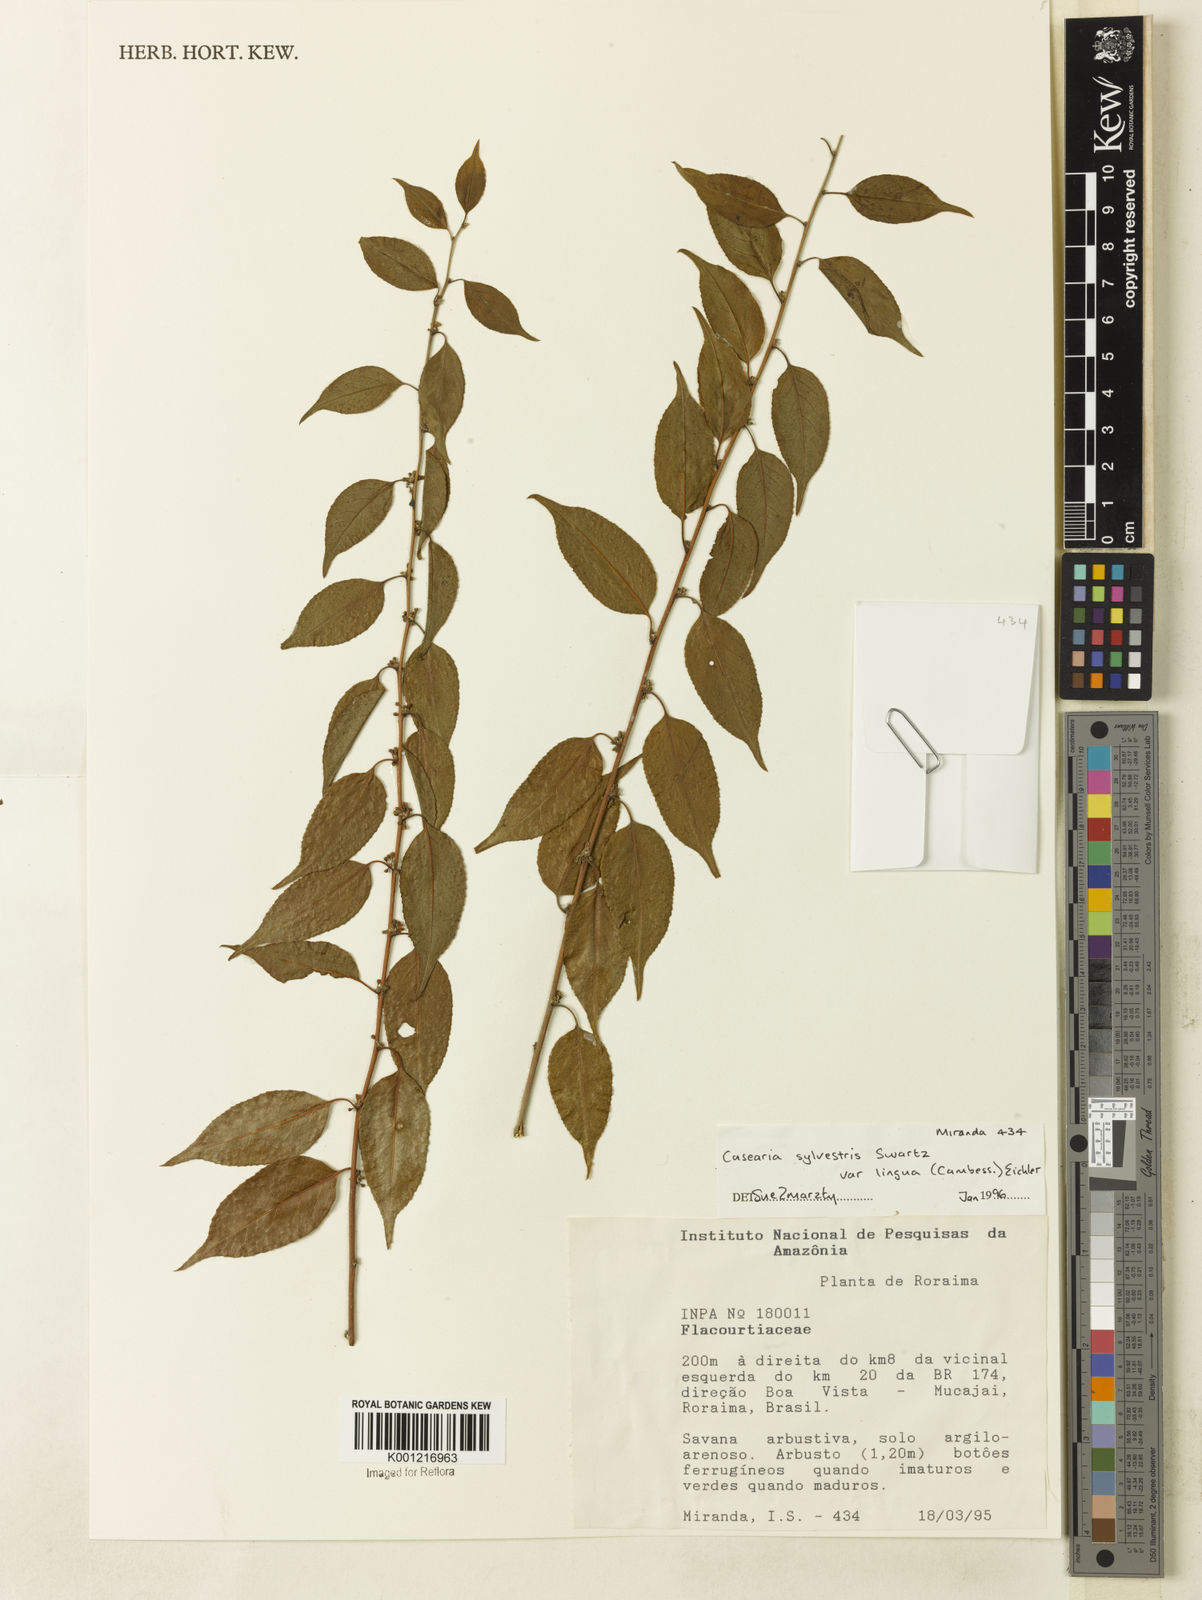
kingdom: Plantae
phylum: Tracheophyta
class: Magnoliopsida
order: Malpighiales
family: Salicaceae
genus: Casearia
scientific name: Casearia sylvestris
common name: Wild sage
